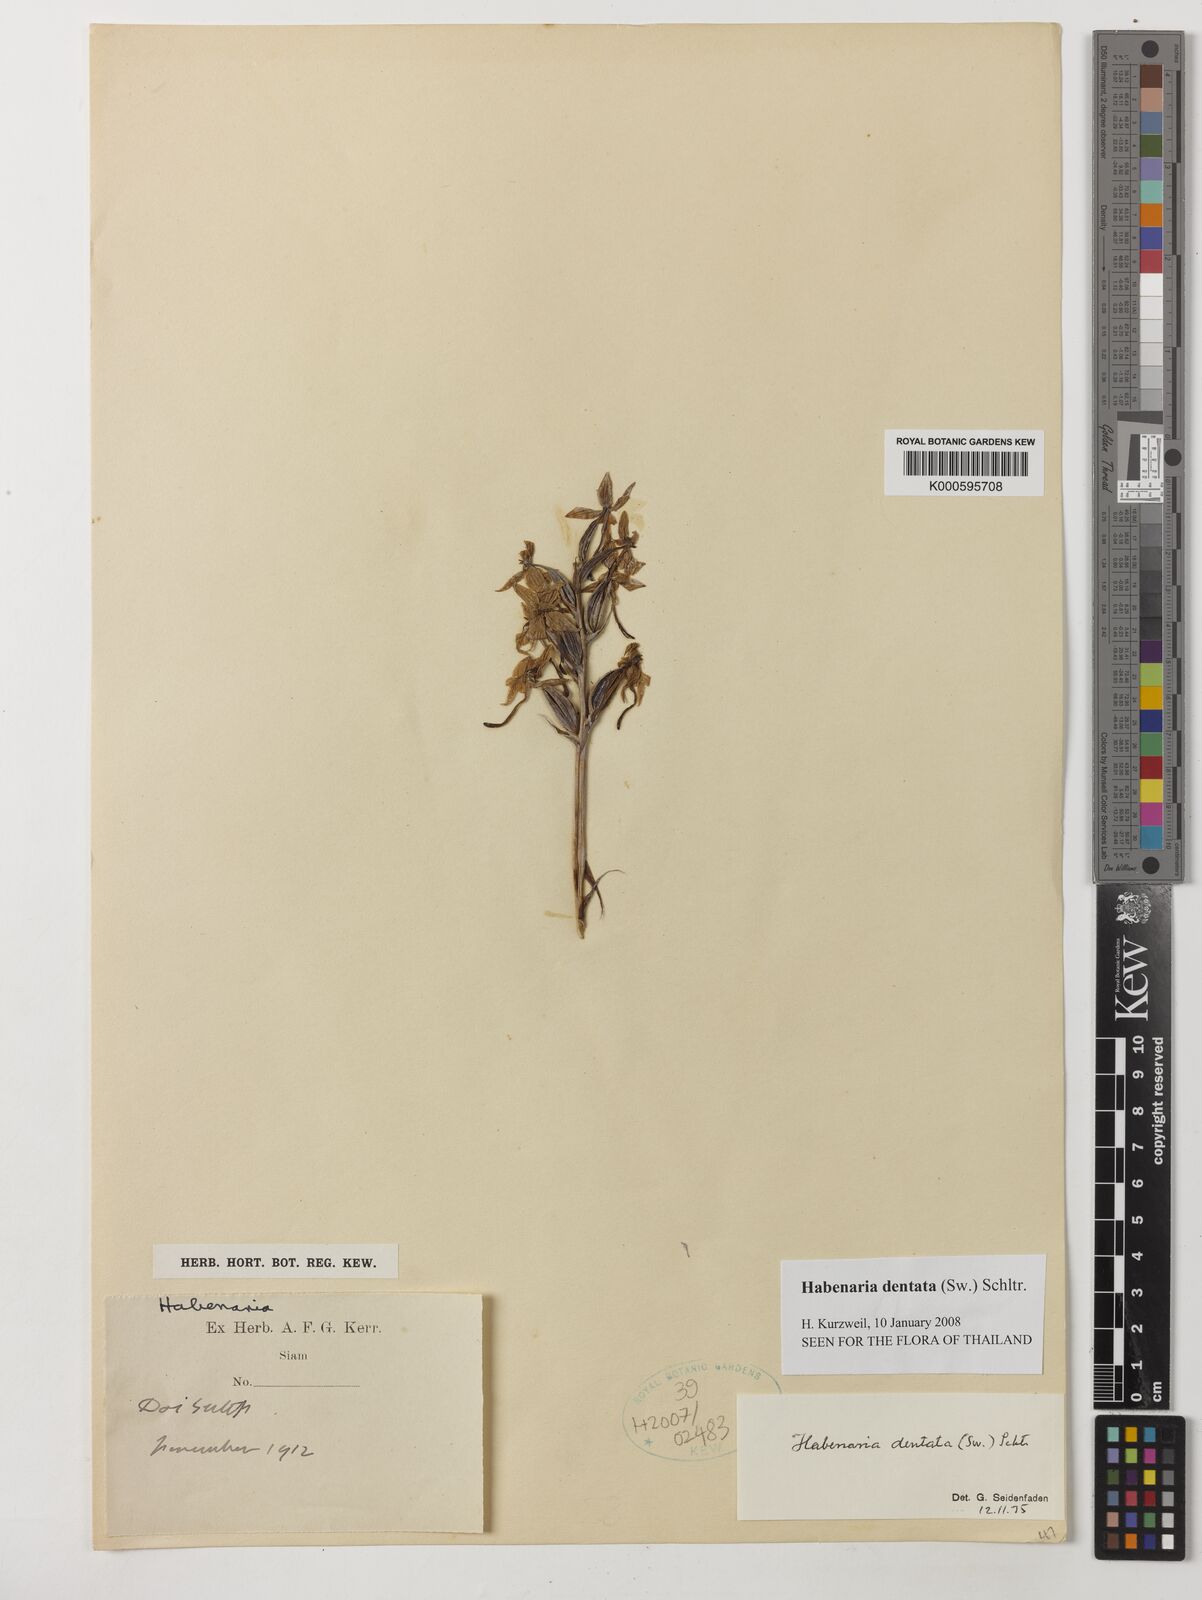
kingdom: Plantae
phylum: Tracheophyta
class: Liliopsida
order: Asparagales
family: Orchidaceae
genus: Habenaria
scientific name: Habenaria dentata
